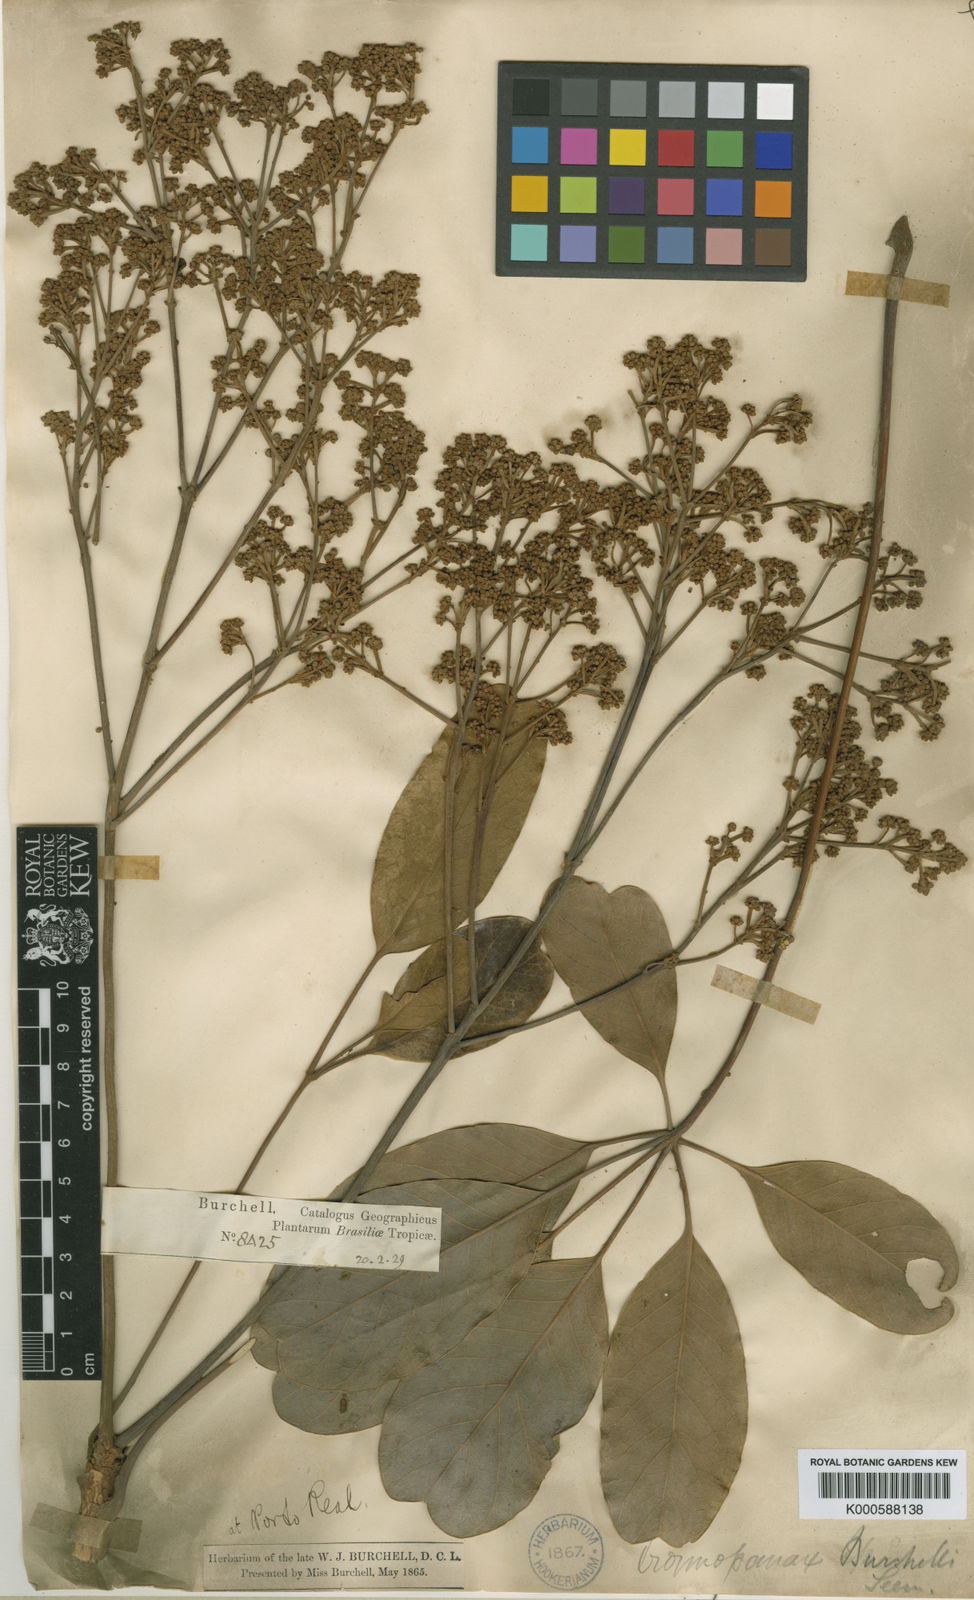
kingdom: Plantae
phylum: Tracheophyta
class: Magnoliopsida
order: Apiales
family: Araliaceae
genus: Didymopanax
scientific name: Didymopanax burchellii
